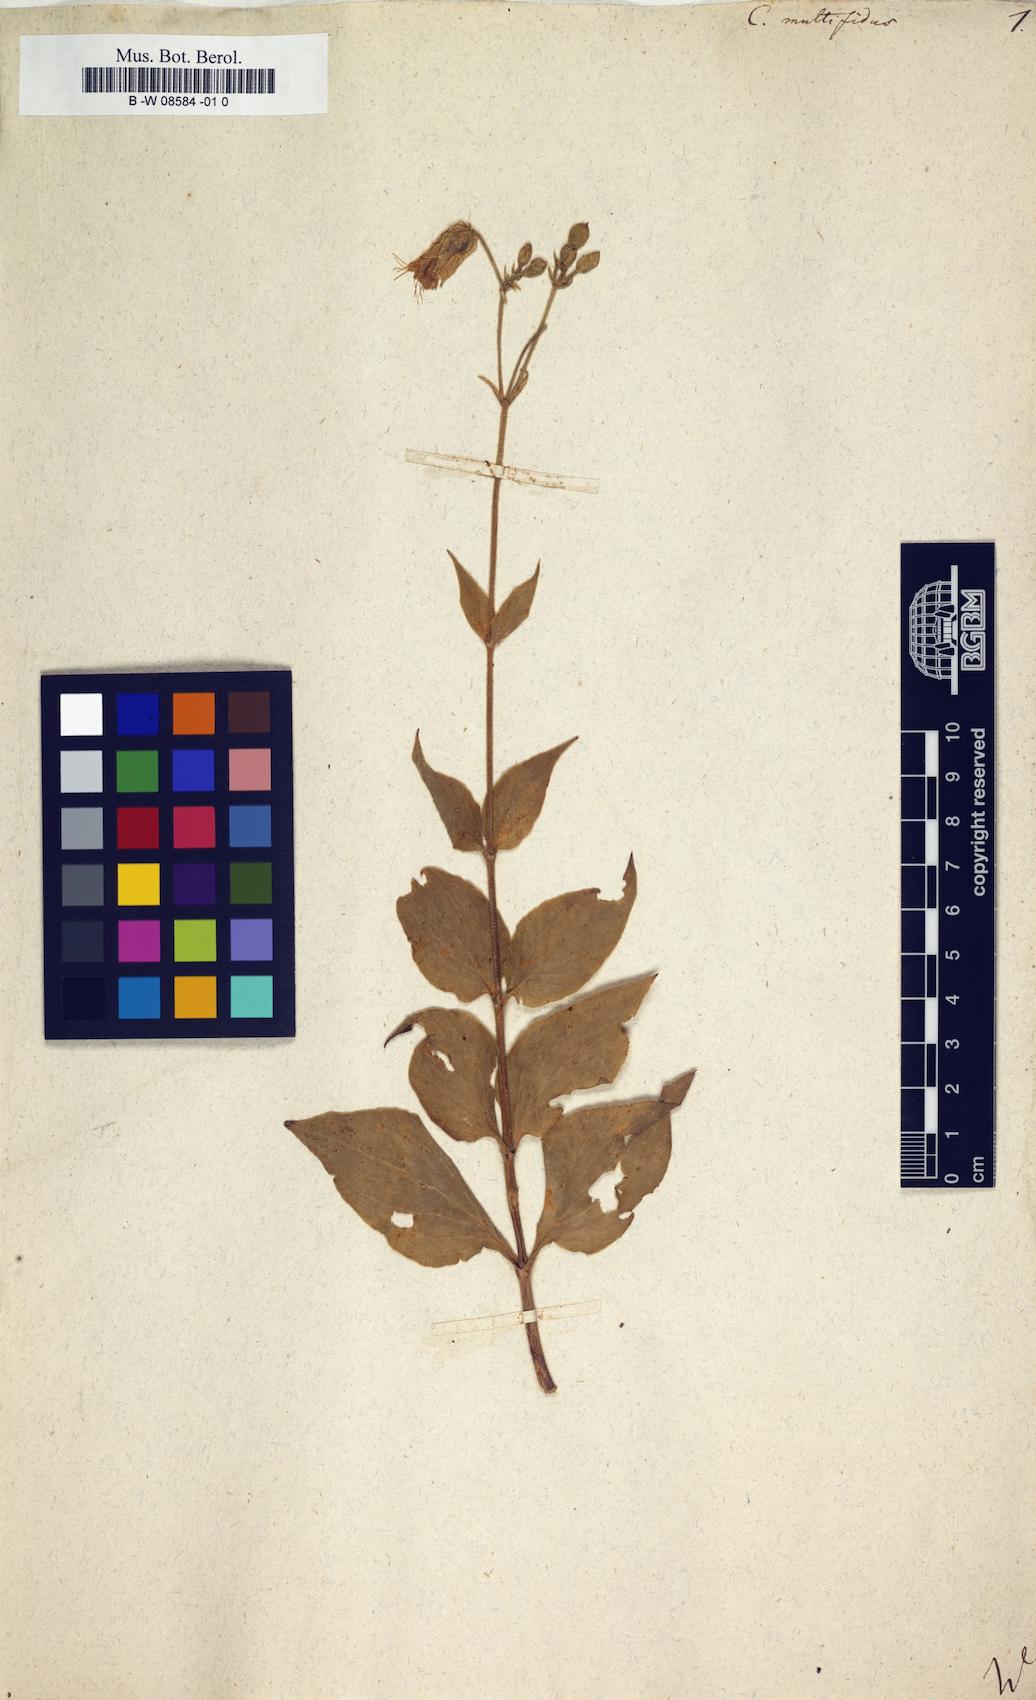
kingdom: Plantae
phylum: Tracheophyta
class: Magnoliopsida
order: Caryophyllales
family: Caryophyllaceae
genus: Silene
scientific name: Silene macrophylla
